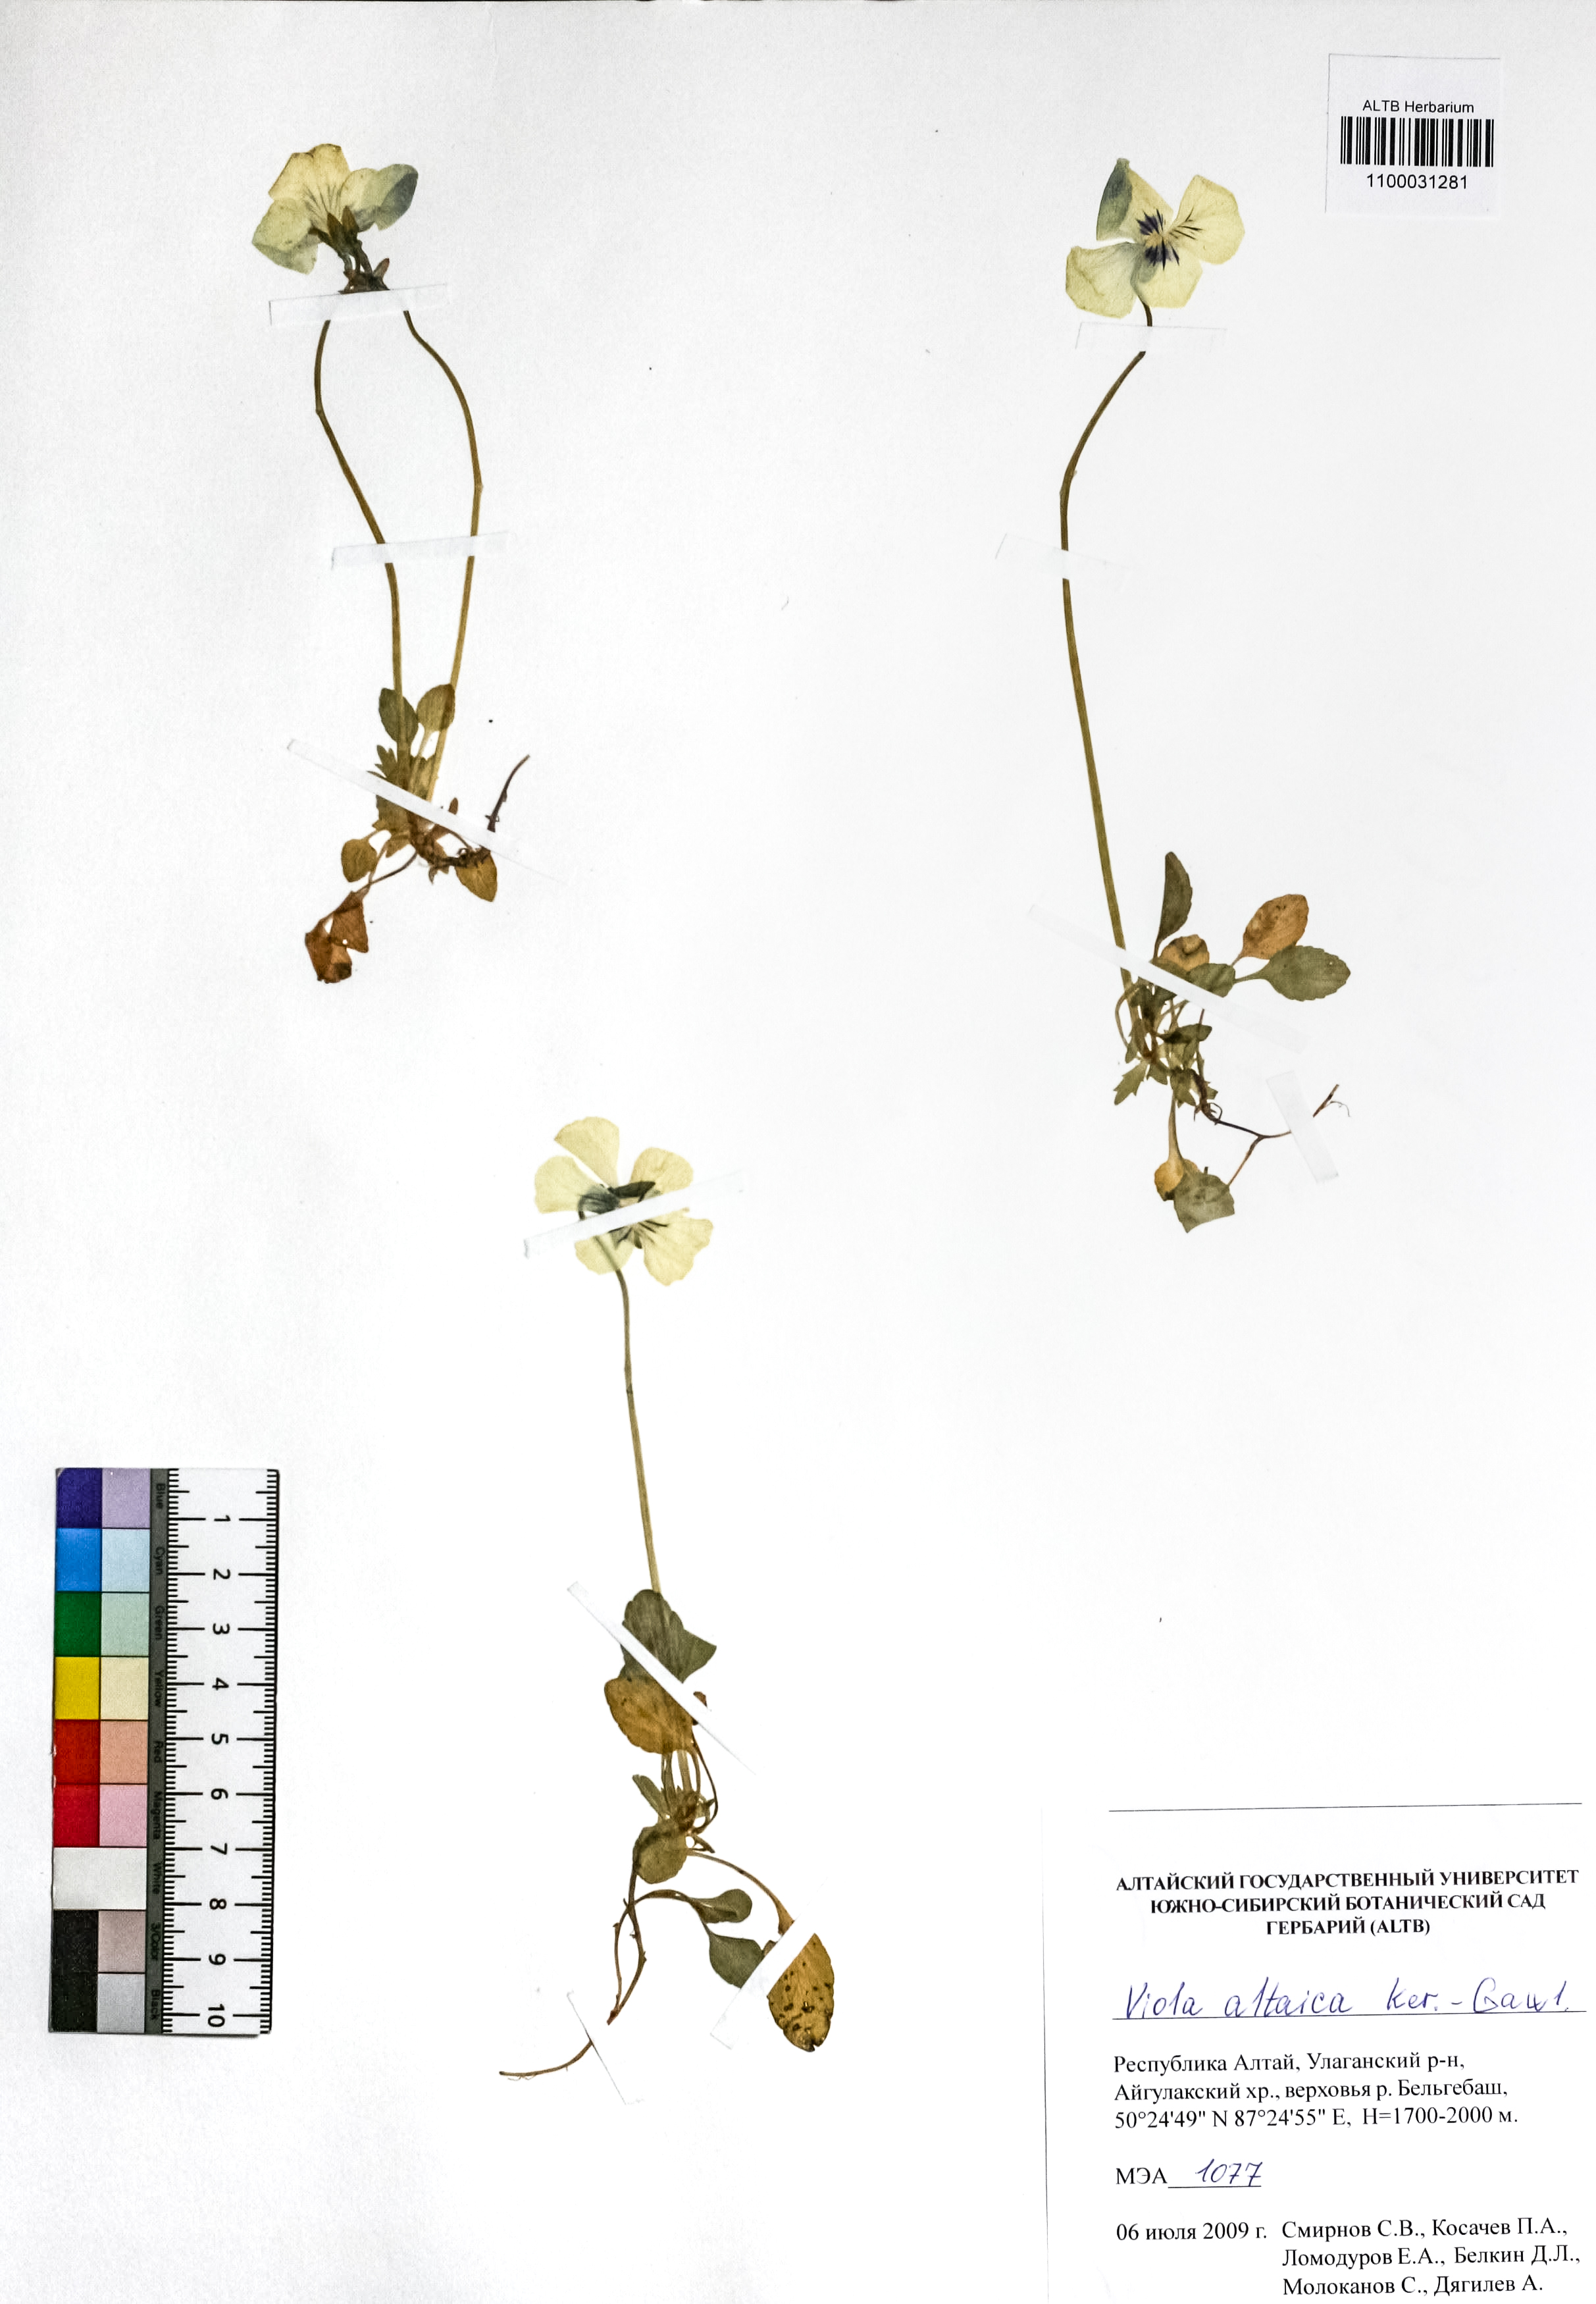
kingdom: Plantae
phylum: Tracheophyta
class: Magnoliopsida
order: Malpighiales
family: Violaceae
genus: Viola
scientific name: Viola altaica
